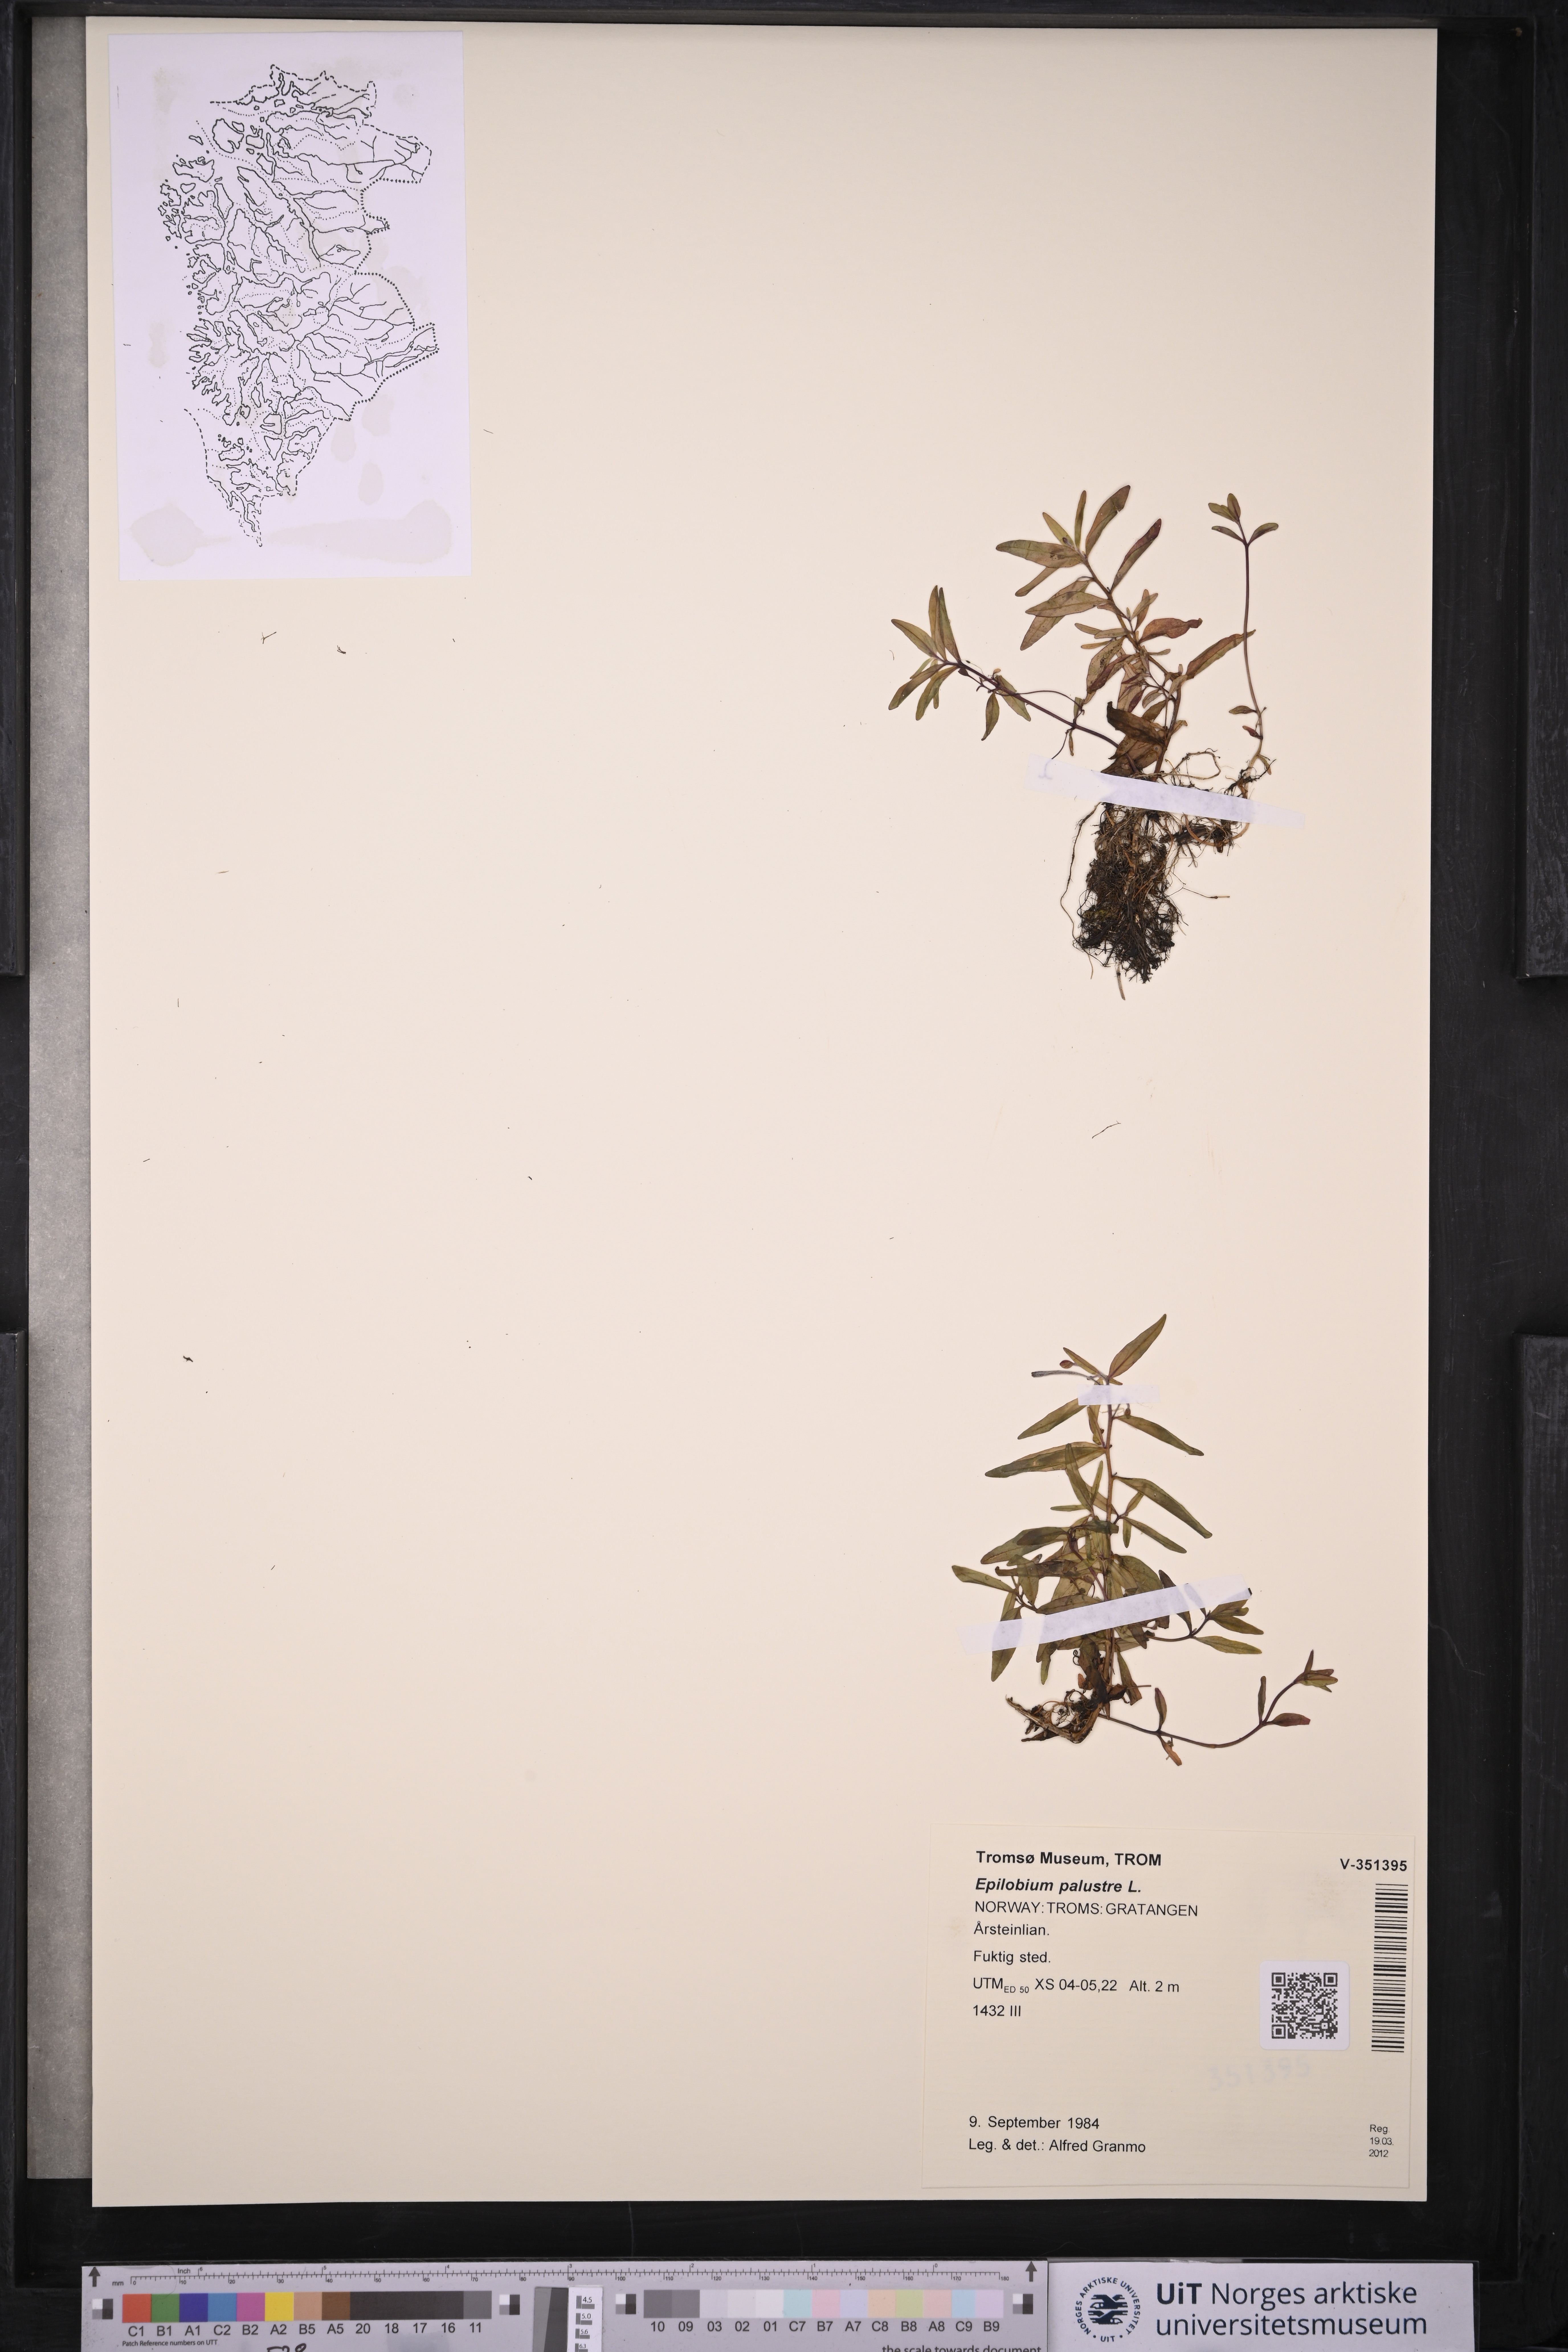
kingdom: Plantae
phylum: Tracheophyta
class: Magnoliopsida
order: Myrtales
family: Onagraceae
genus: Epilobium
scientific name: Epilobium palustre
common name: Marsh willowherb
